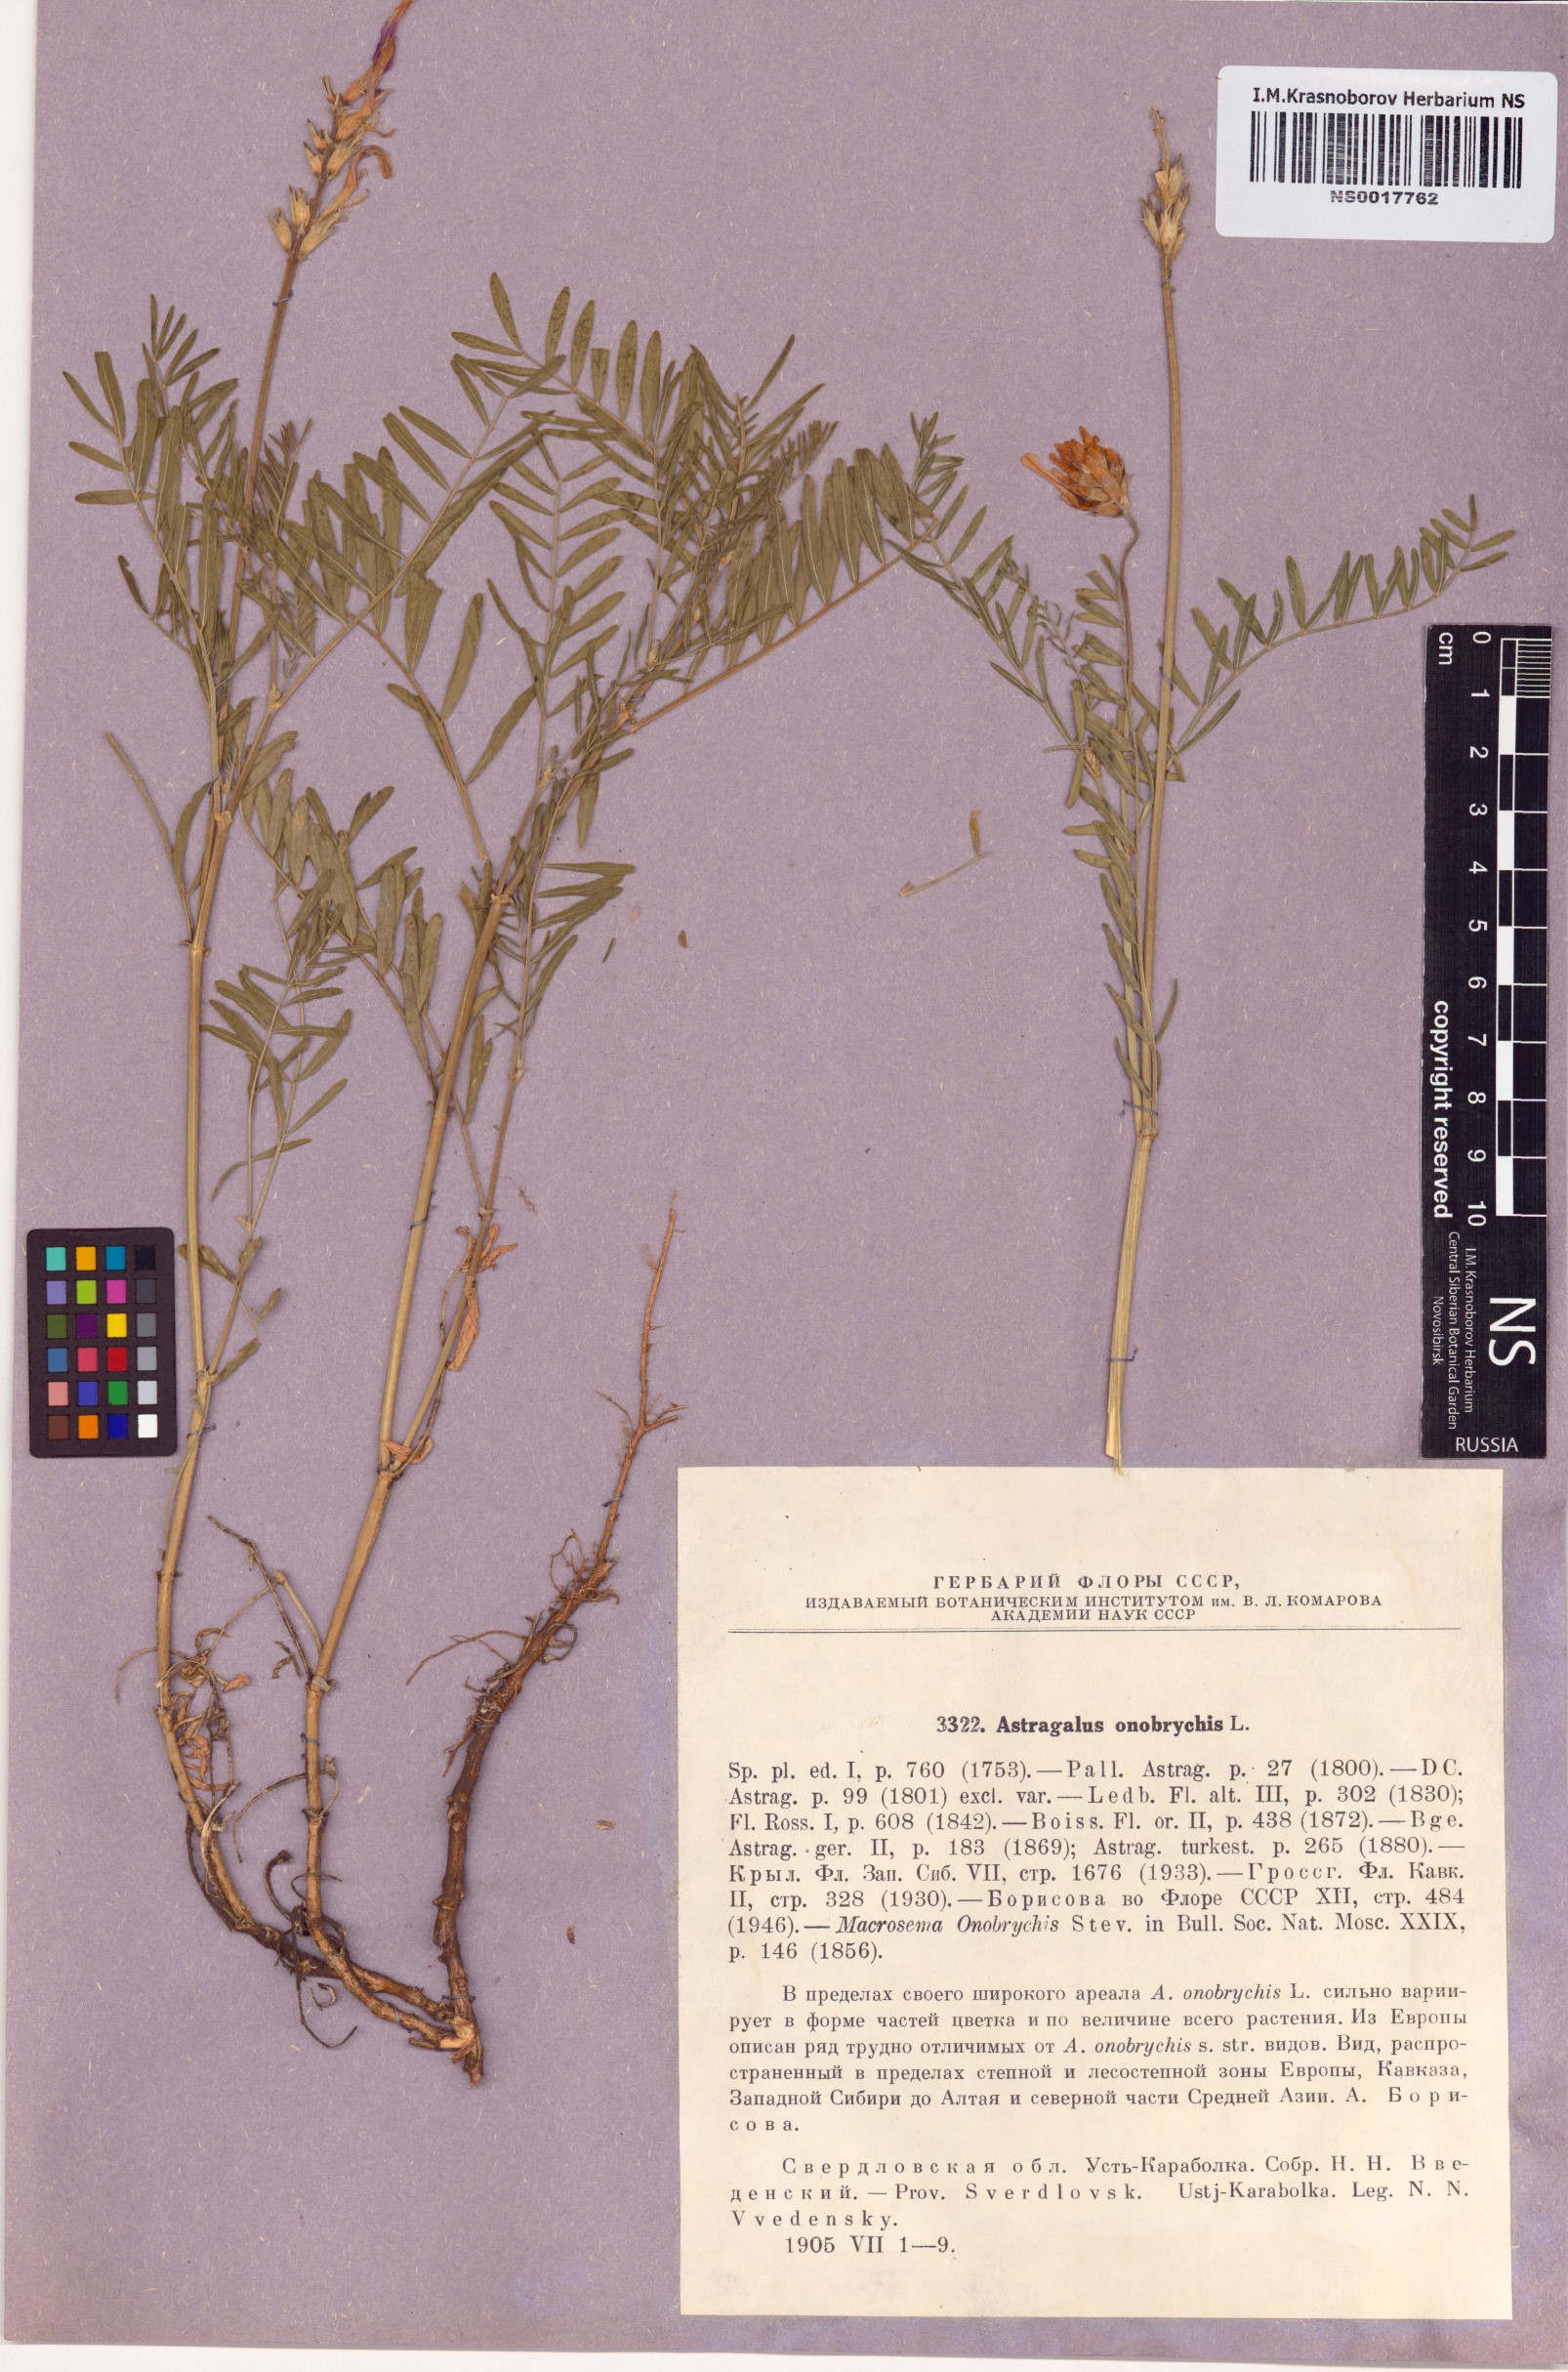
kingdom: Plantae
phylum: Tracheophyta
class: Magnoliopsida
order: Fabales
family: Fabaceae
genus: Astragalus
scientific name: Astragalus onobrychis
